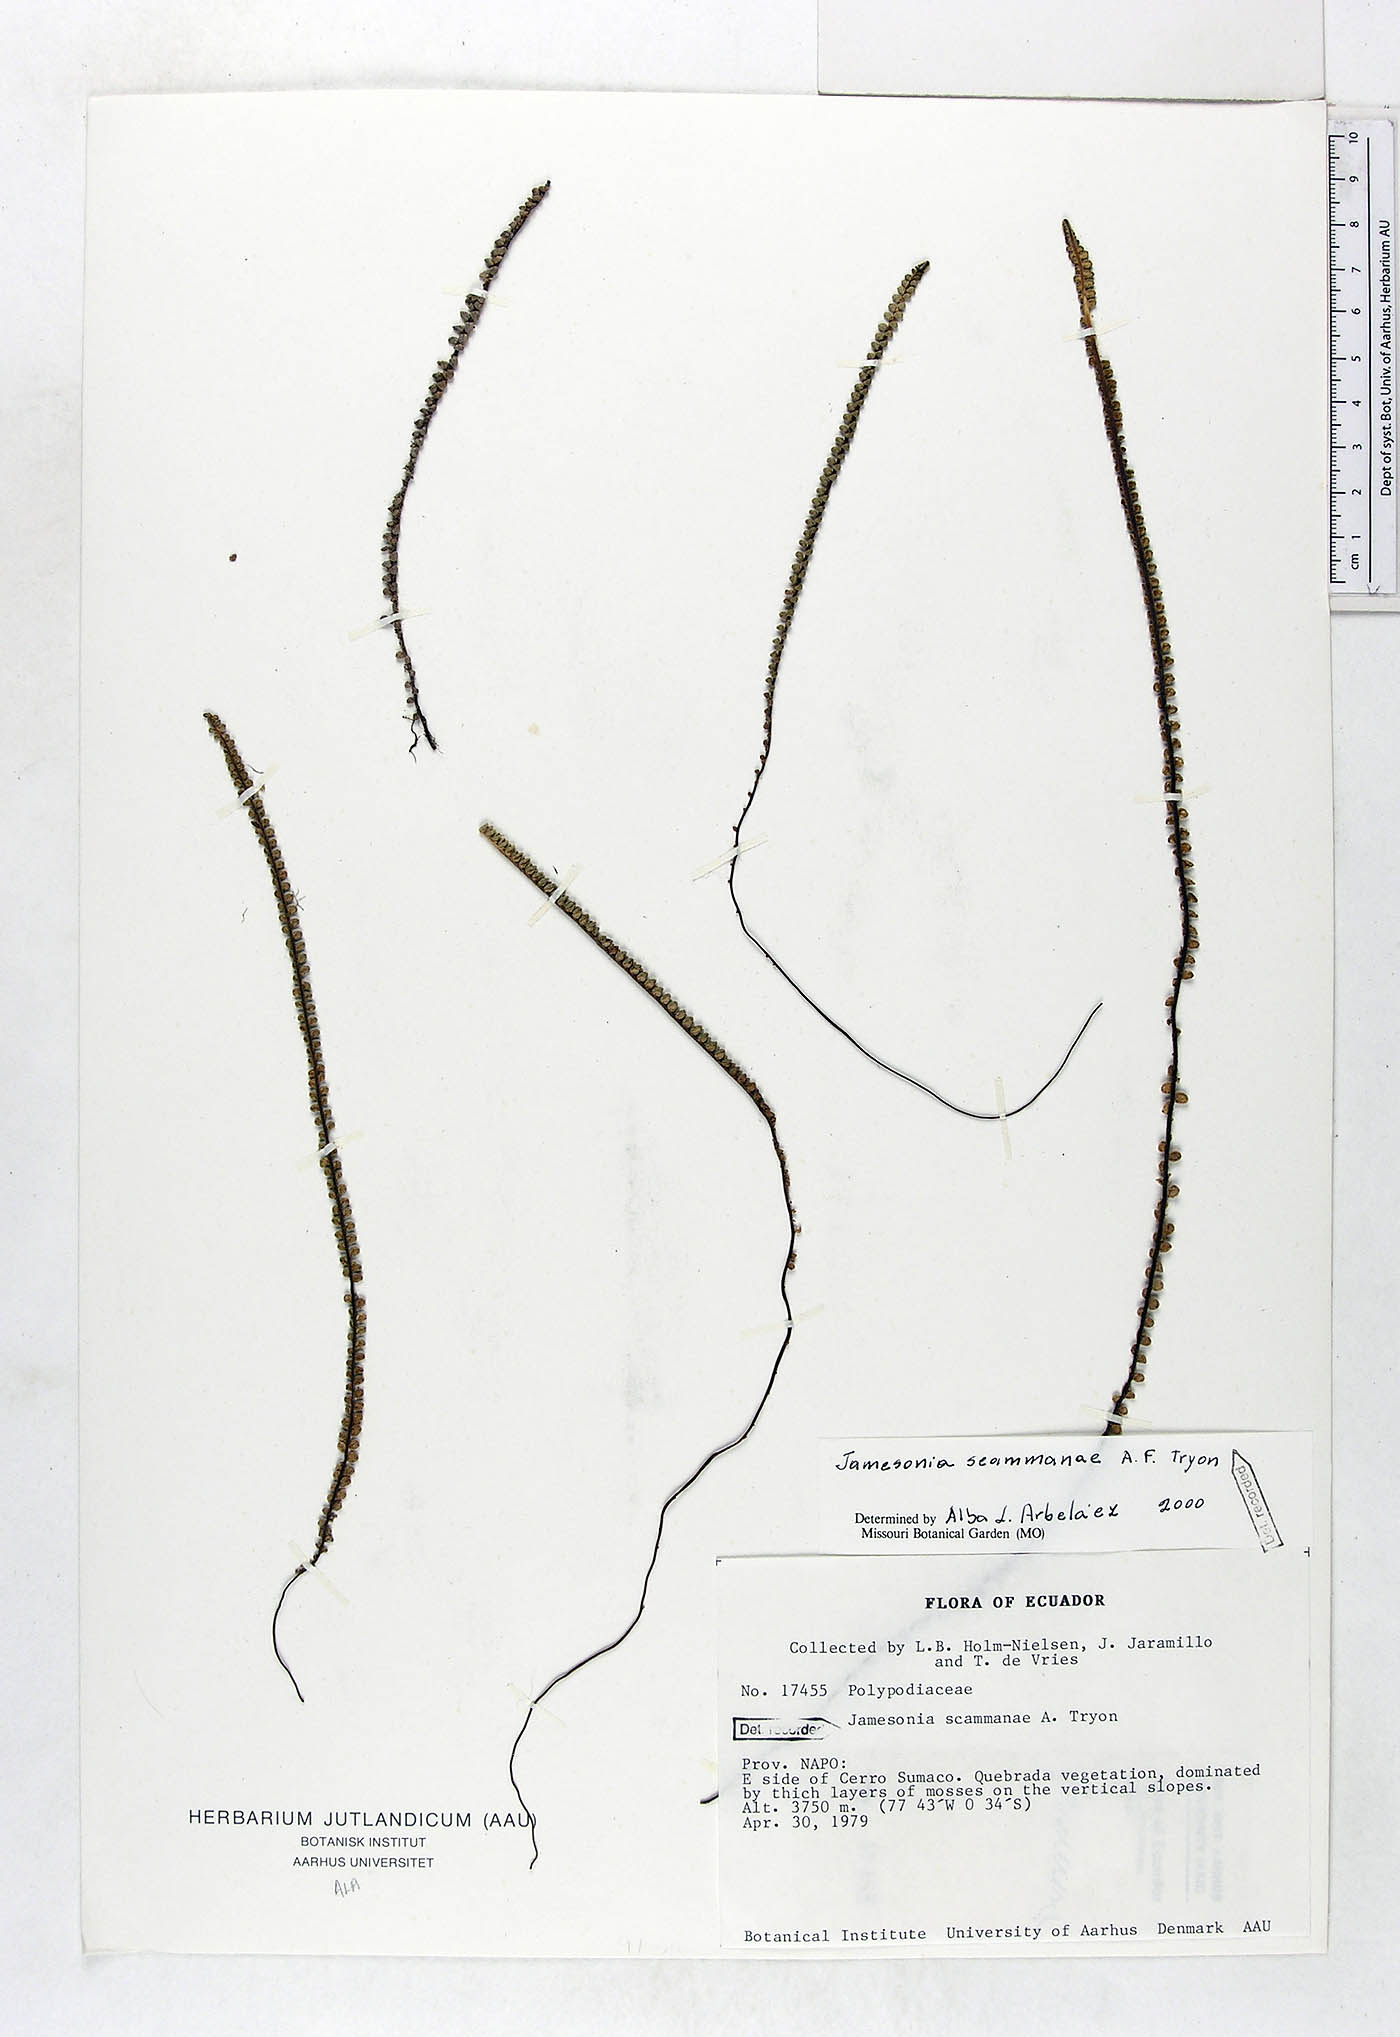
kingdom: Plantae
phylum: Tracheophyta
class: Polypodiopsida
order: Polypodiales
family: Pteridaceae
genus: Jamesonia
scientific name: Jamesonia scammanae
